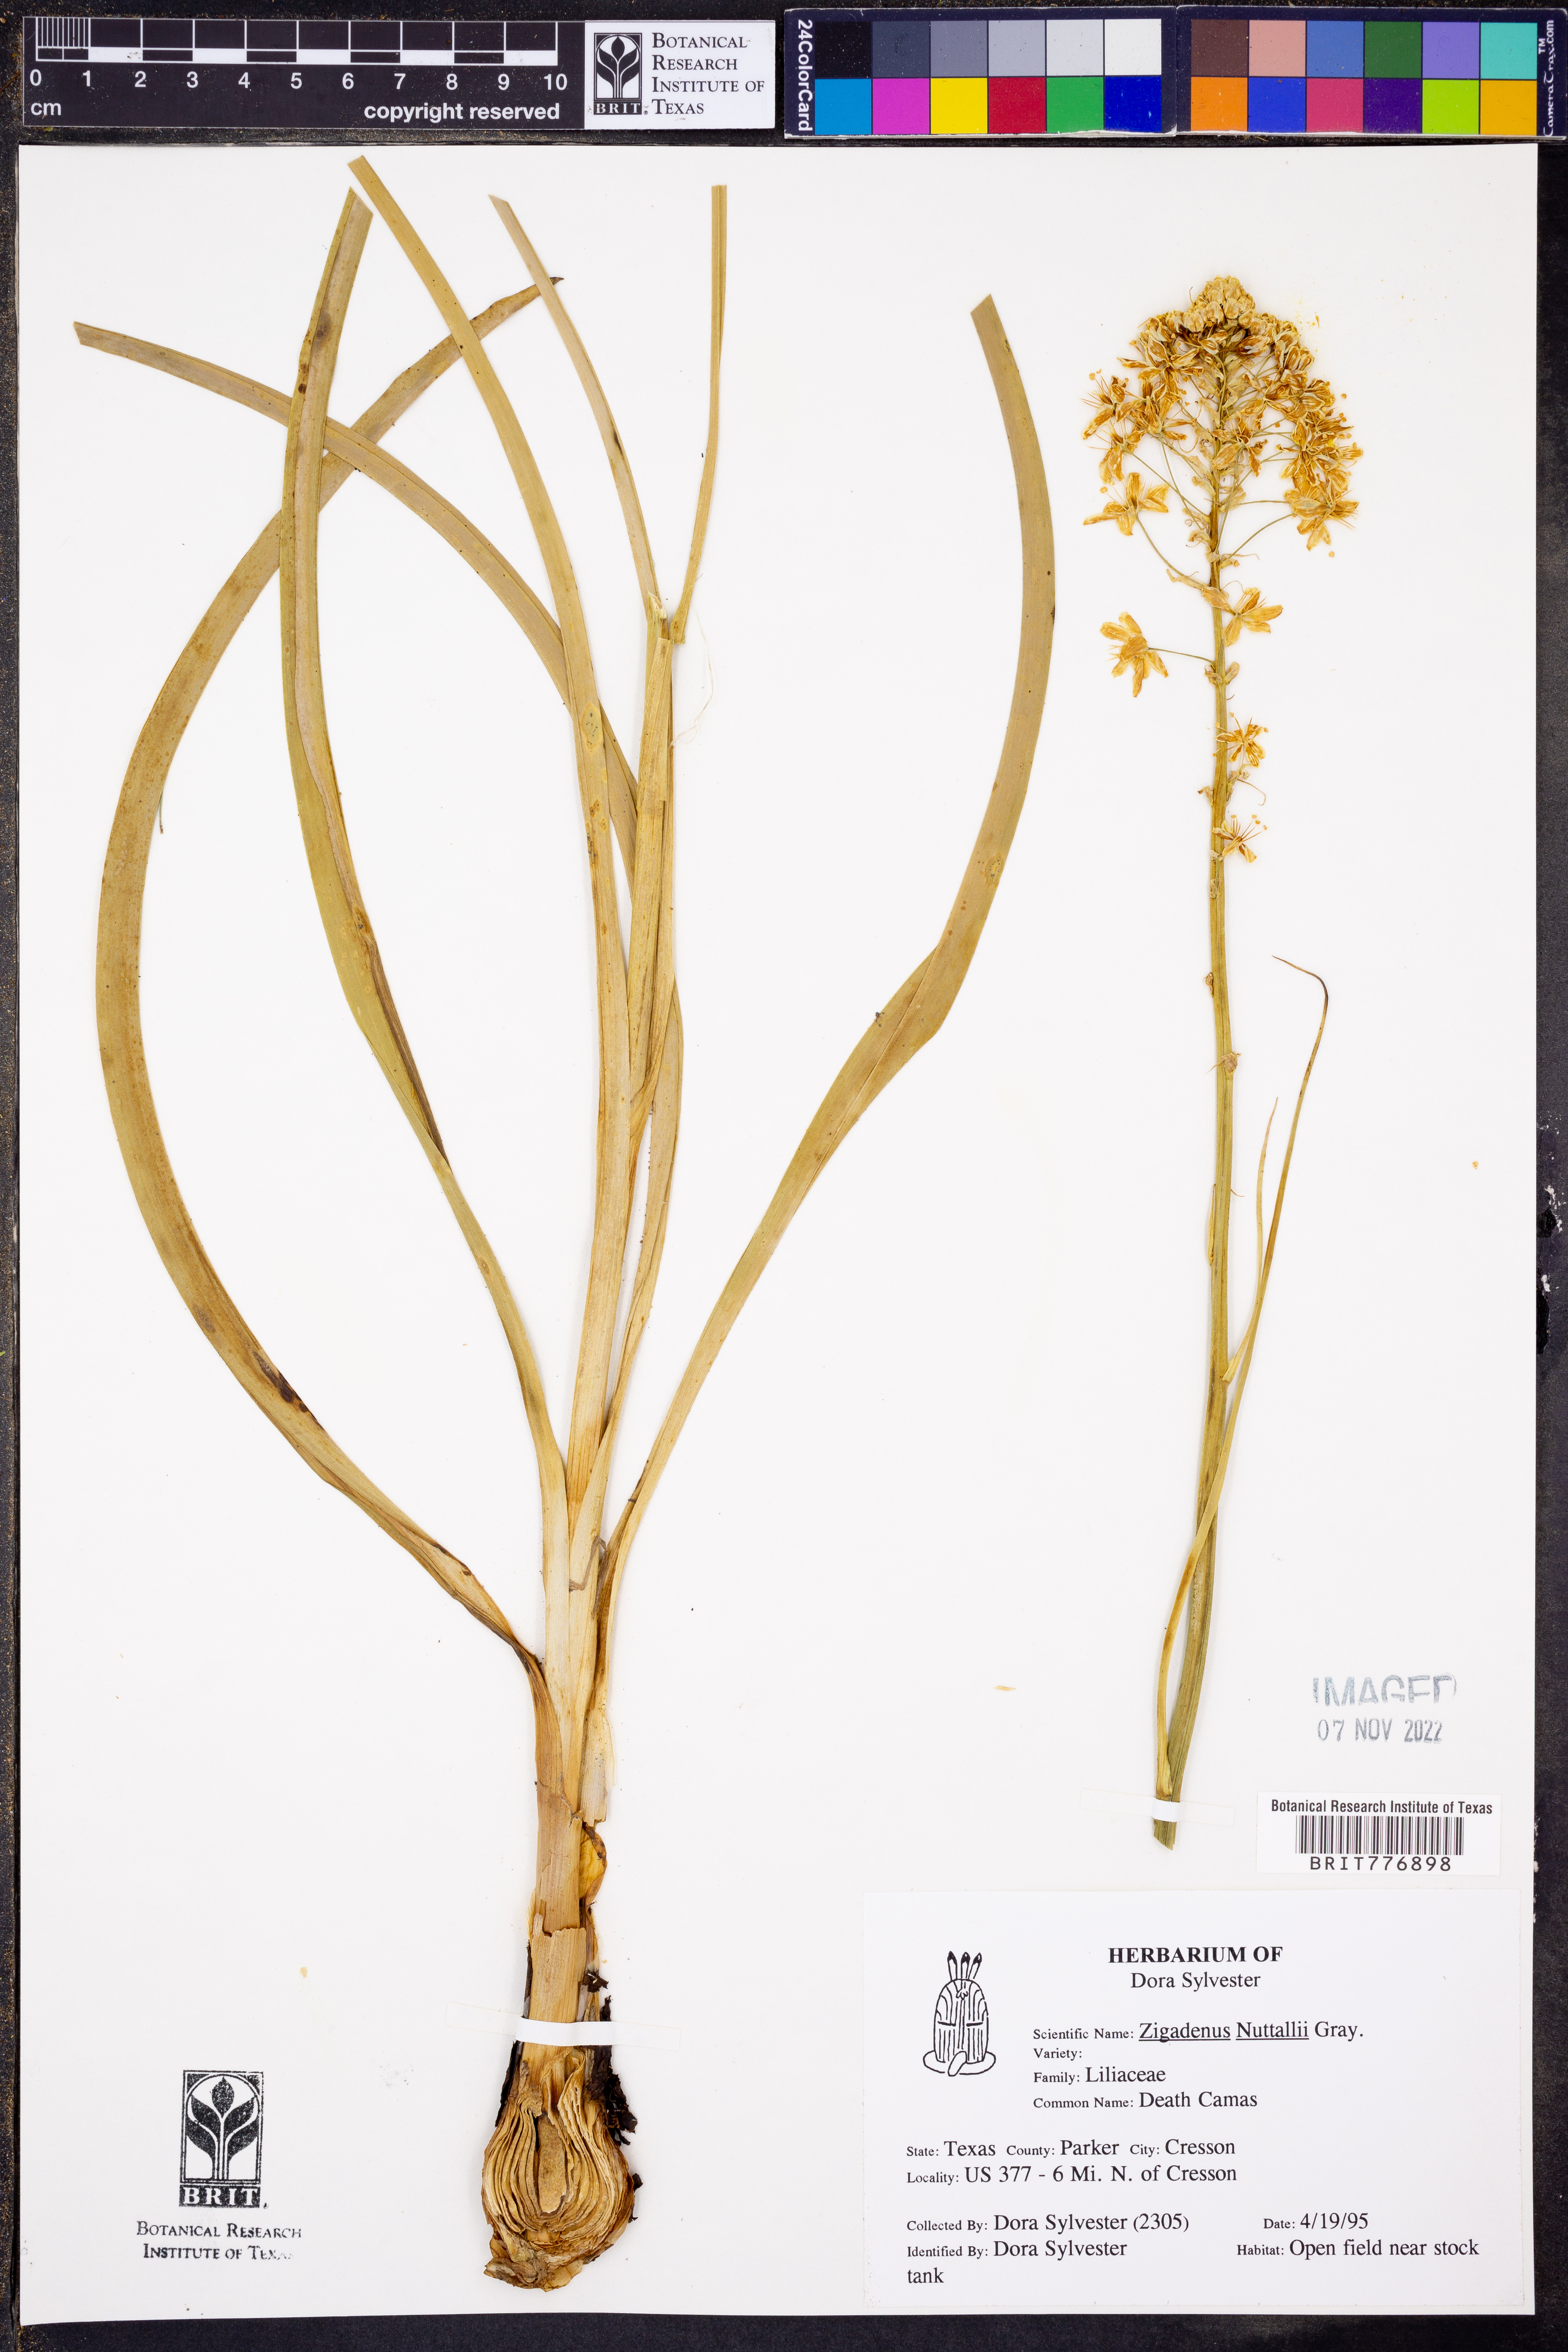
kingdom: Plantae
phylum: Tracheophyta
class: Liliopsida
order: Liliales
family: Melanthiaceae
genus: Toxicoscordion
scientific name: Toxicoscordion nuttallii
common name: Poison sego
